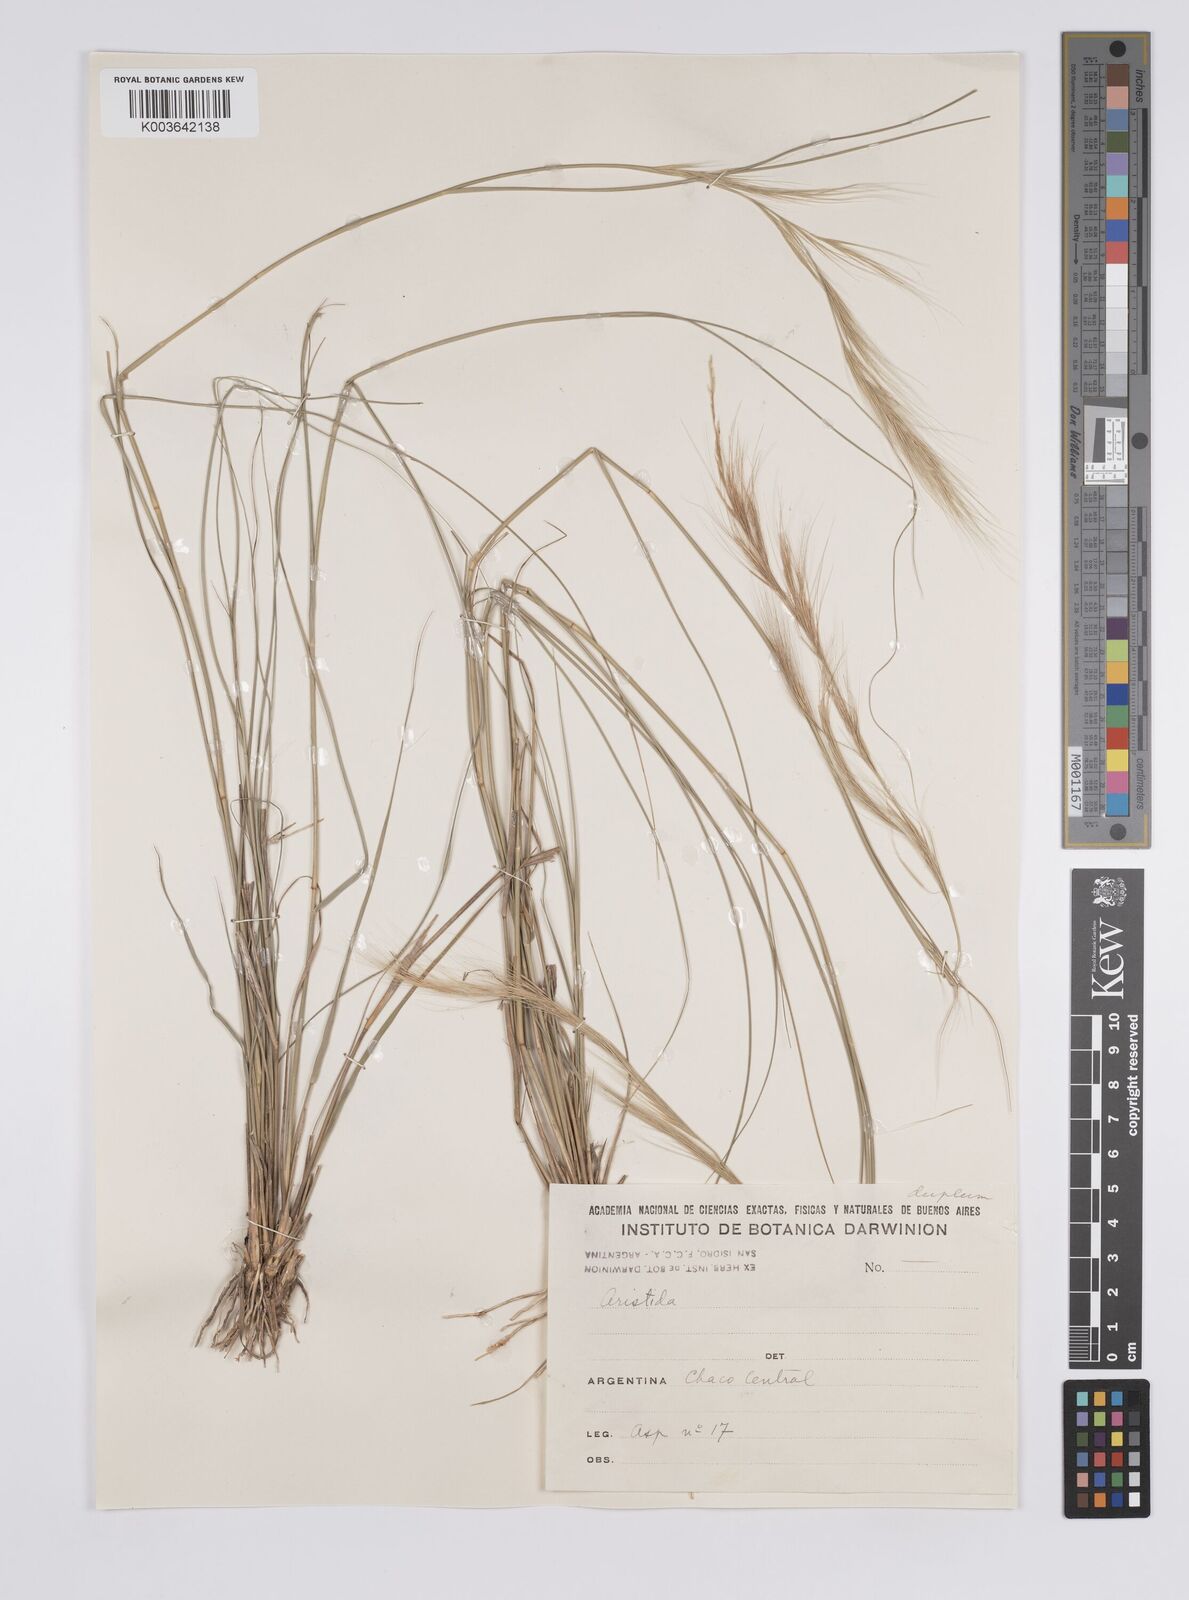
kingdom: Plantae
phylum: Tracheophyta
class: Liliopsida
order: Poales
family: Poaceae
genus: Aristida
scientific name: Aristida
